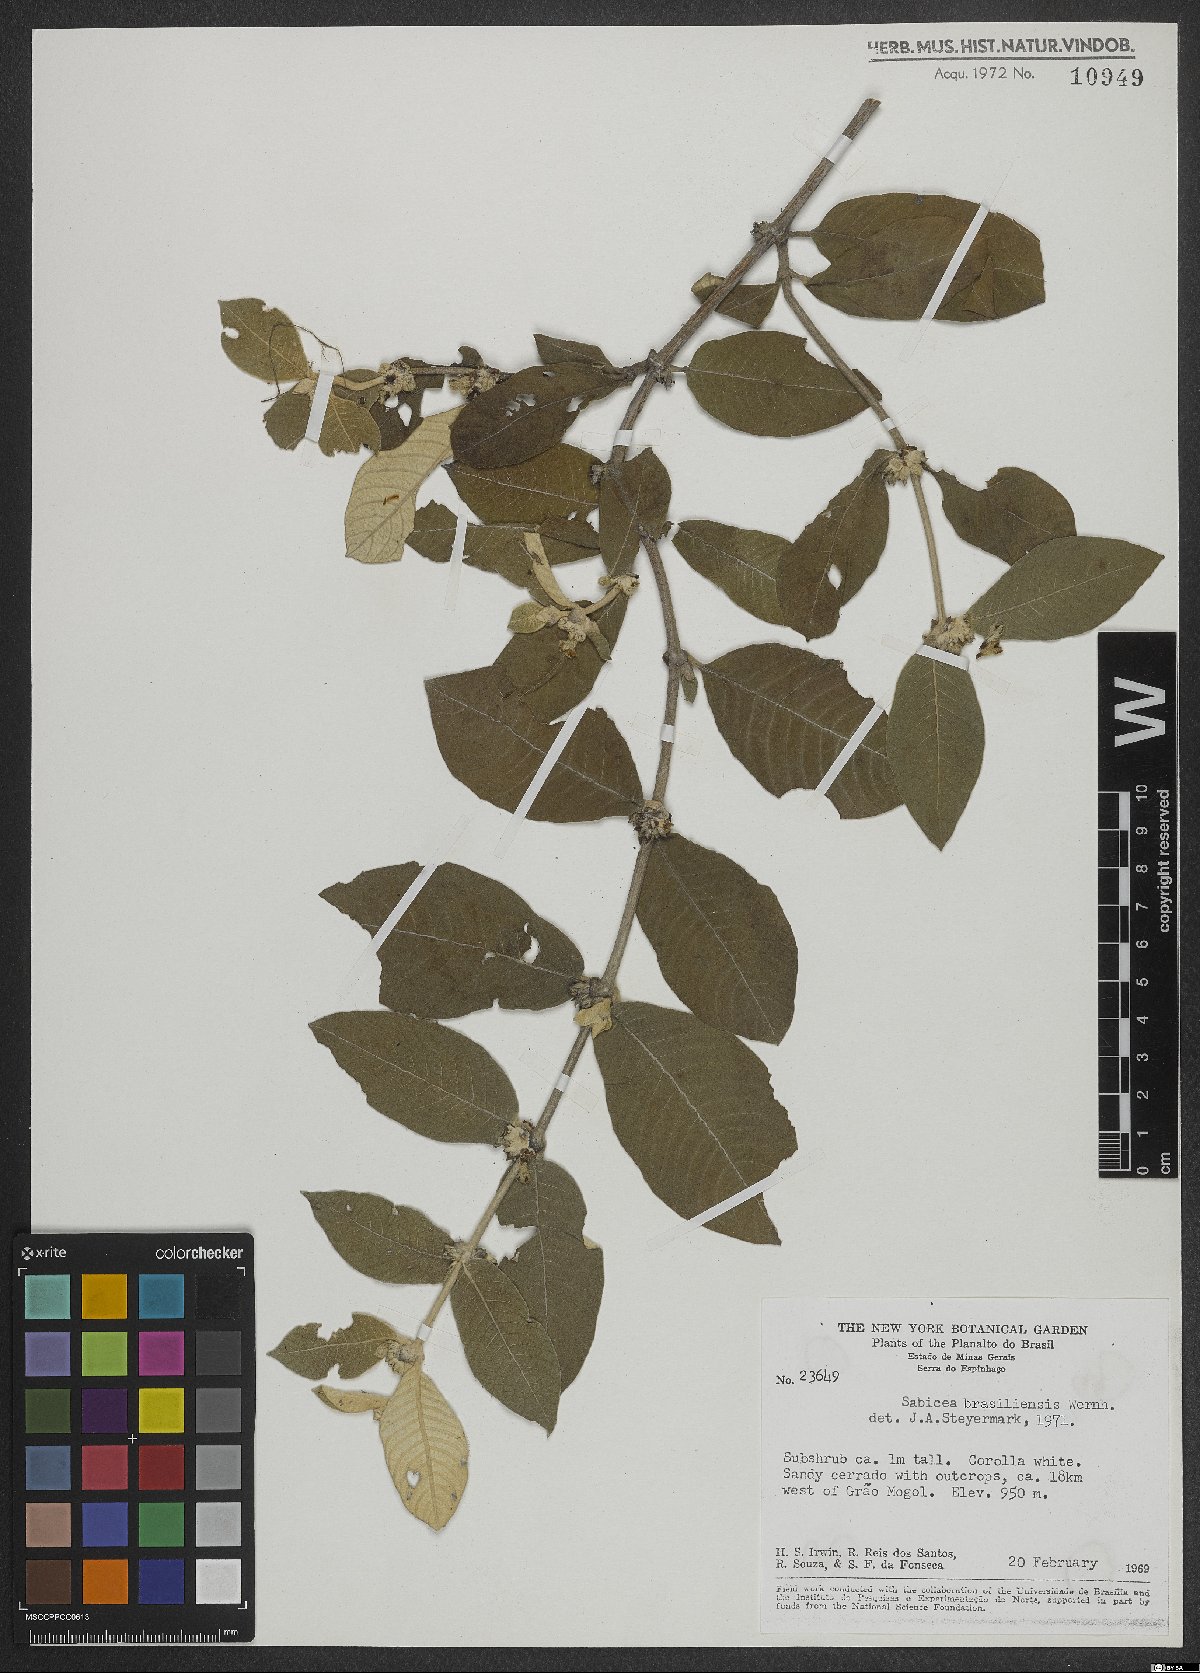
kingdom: Plantae
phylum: Tracheophyta
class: Magnoliopsida
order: Gentianales
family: Rubiaceae
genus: Sabicea
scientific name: Sabicea brasiliensis
